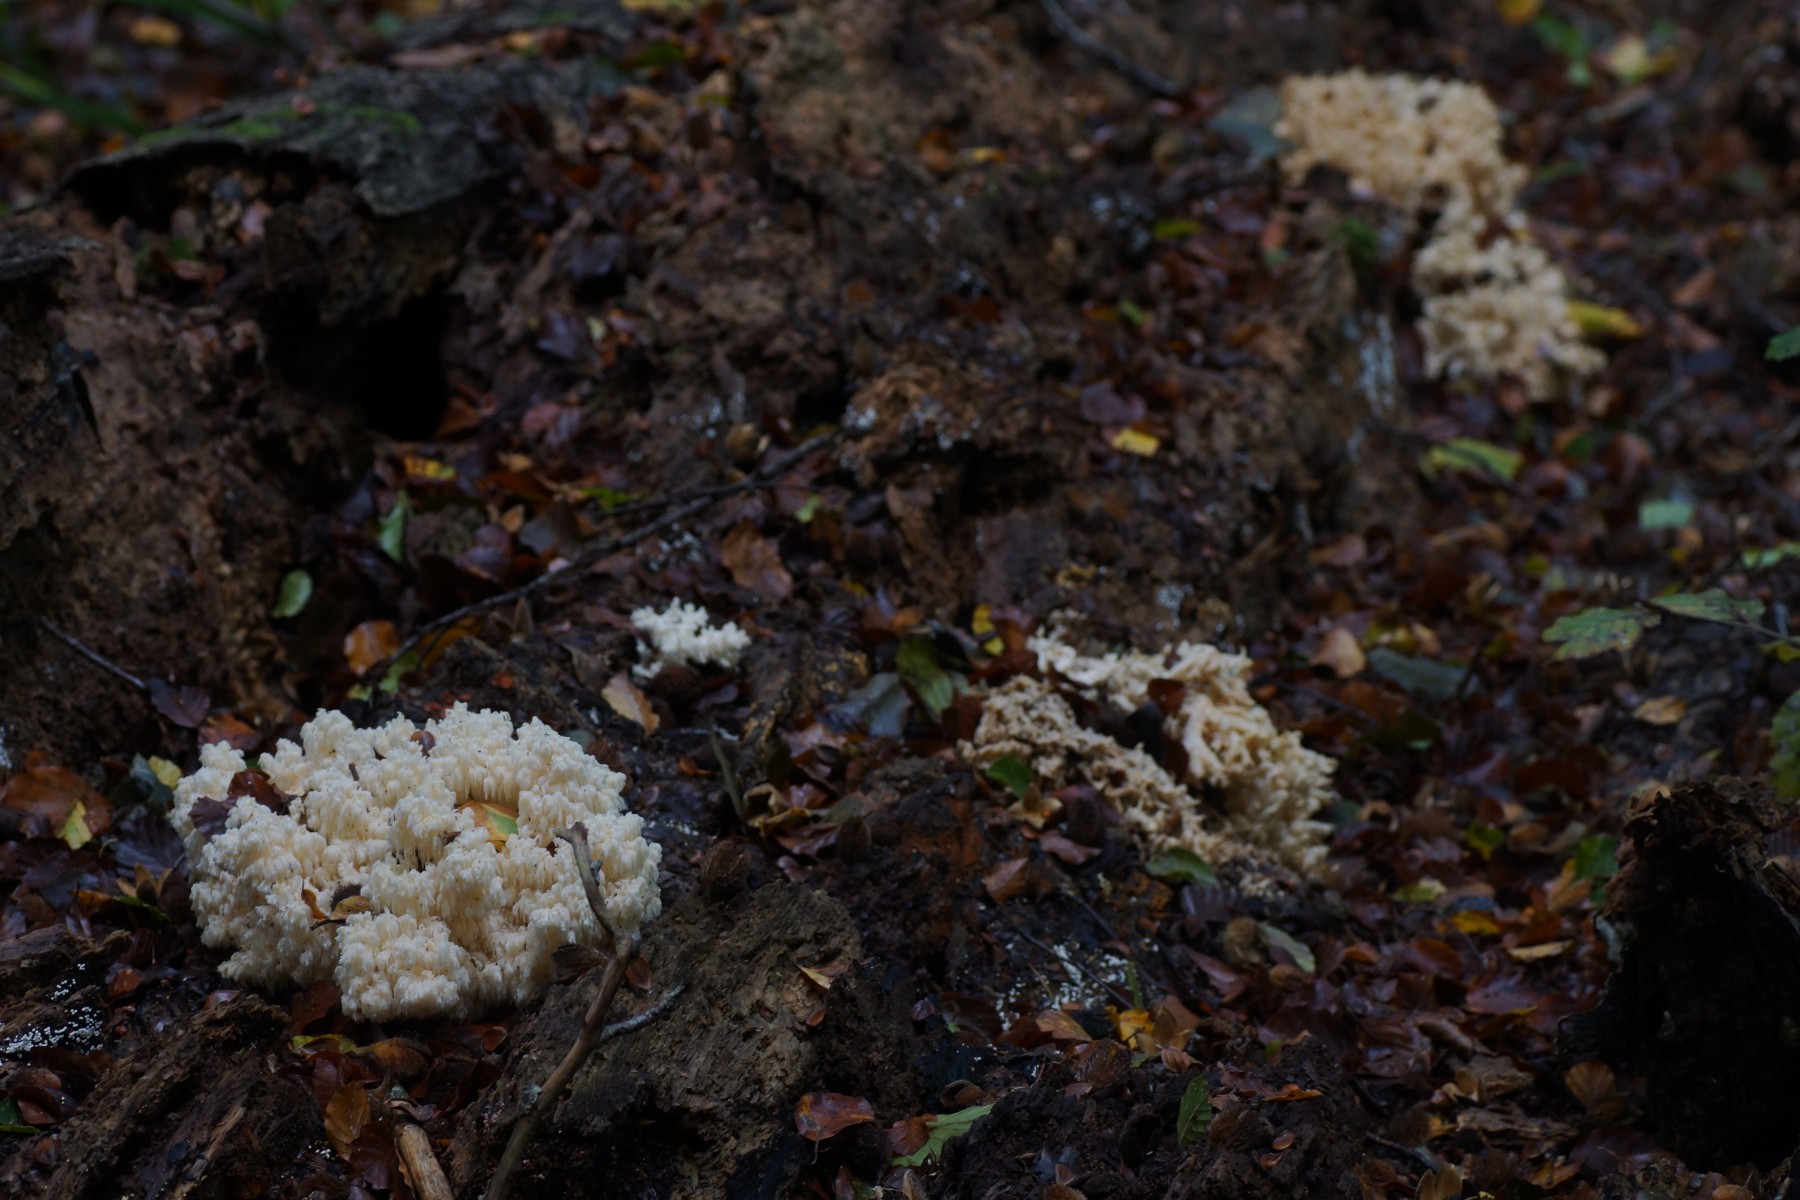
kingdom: Fungi
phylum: Basidiomycota
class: Agaricomycetes
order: Russulales
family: Hericiaceae
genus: Hericium
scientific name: Hericium coralloides
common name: koralpigsvamp
